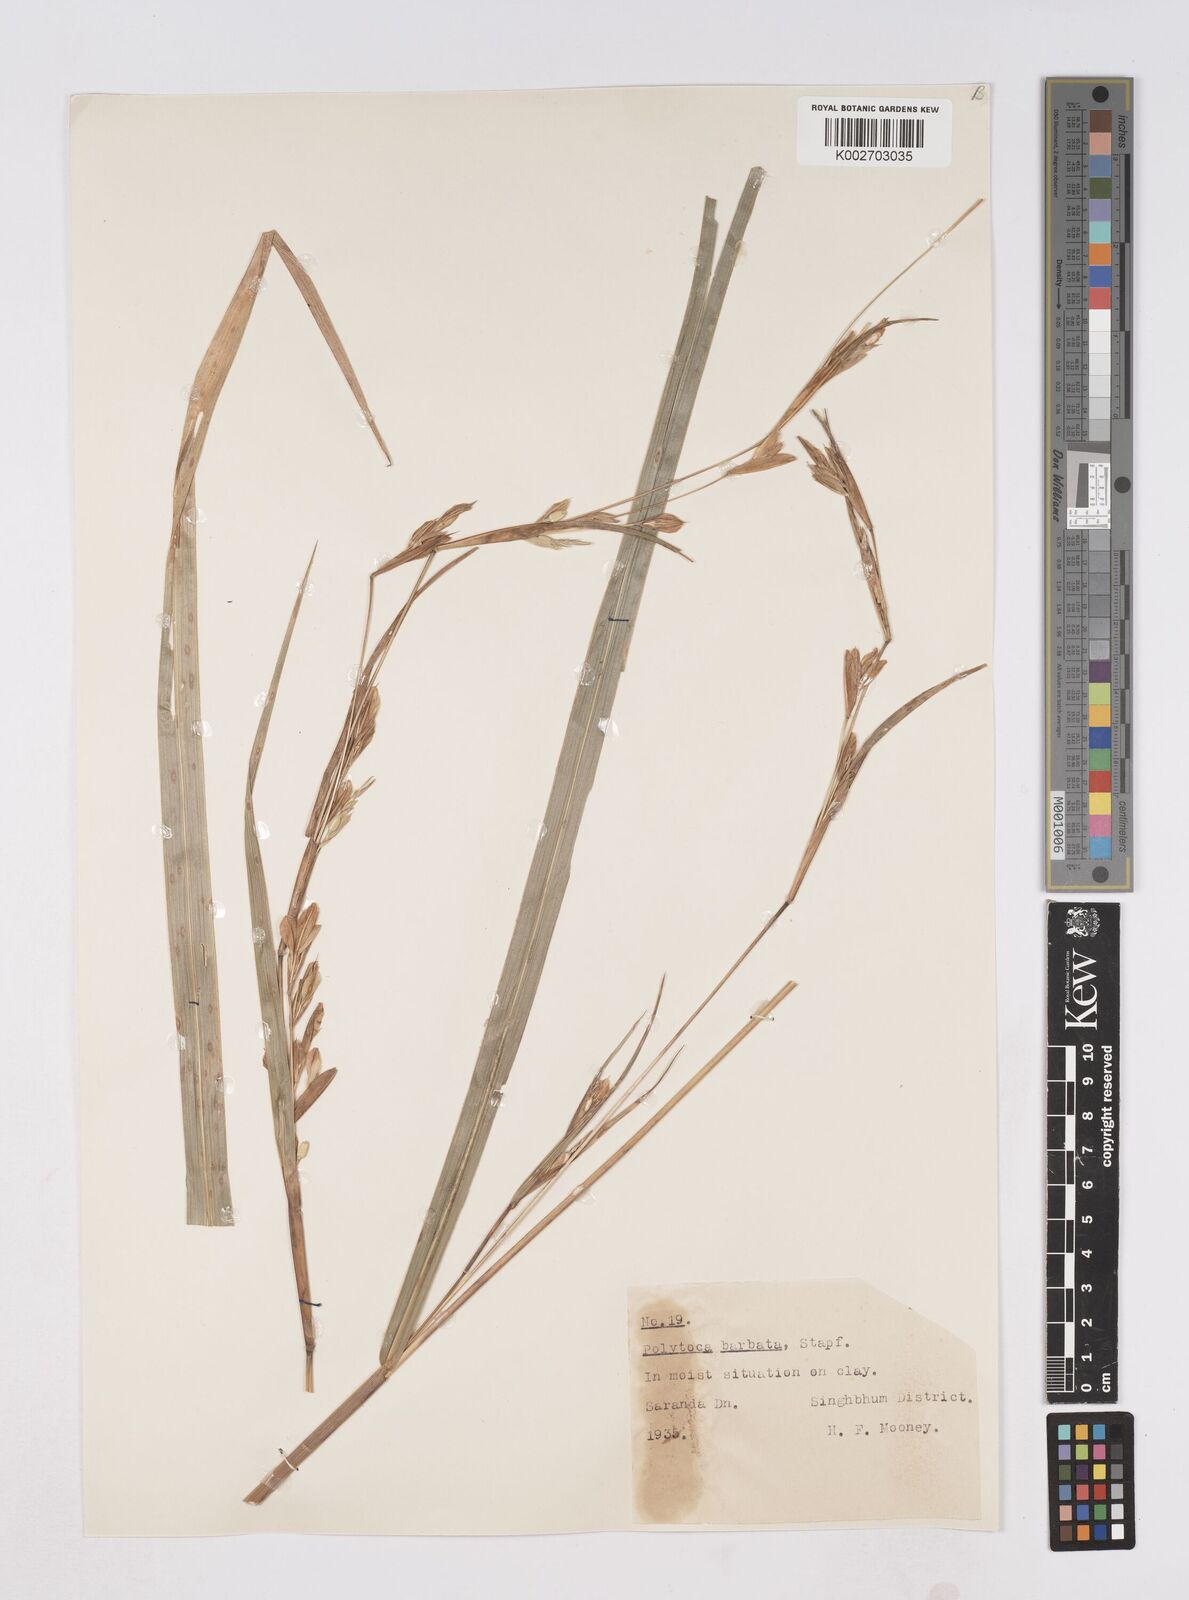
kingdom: Plantae
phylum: Tracheophyta
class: Liliopsida
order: Poales
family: Poaceae
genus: Polytoca
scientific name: Polytoca gigantea
